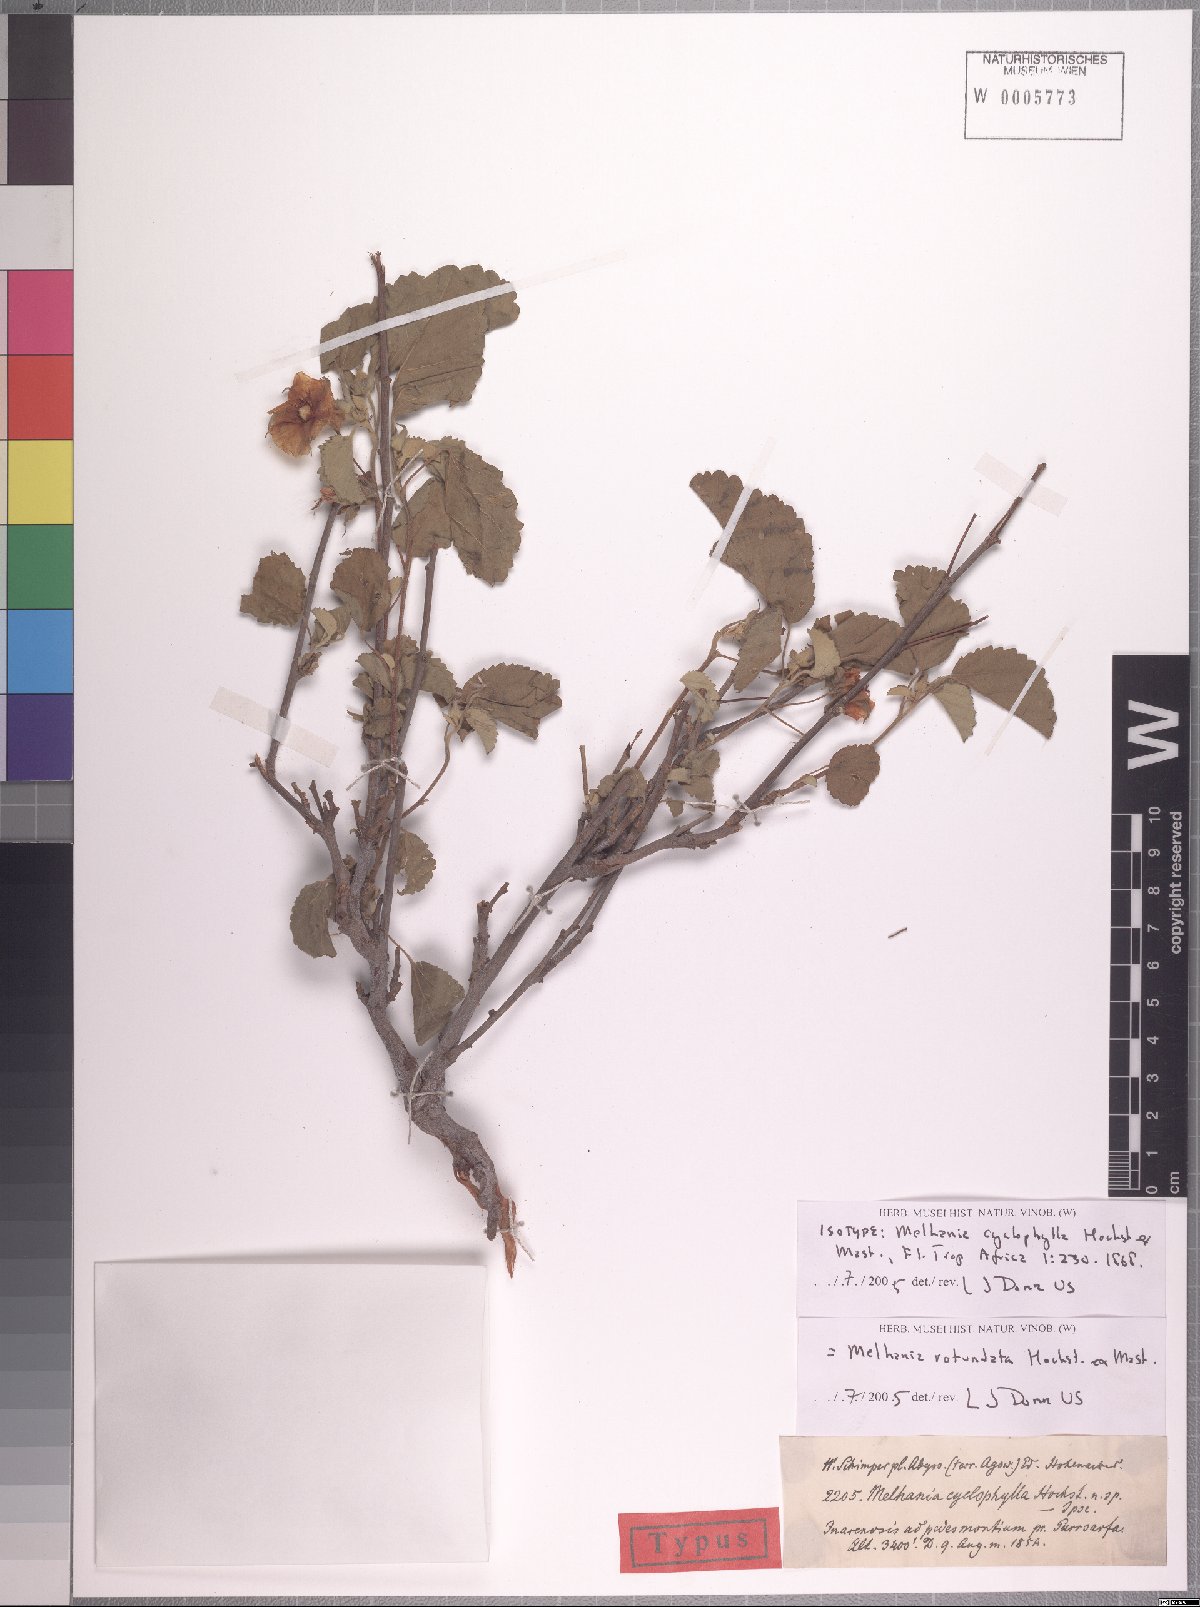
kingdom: Plantae
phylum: Tracheophyta
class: Magnoliopsida
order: Malvales
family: Malvaceae
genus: Melhania
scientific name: Melhania rotundata
